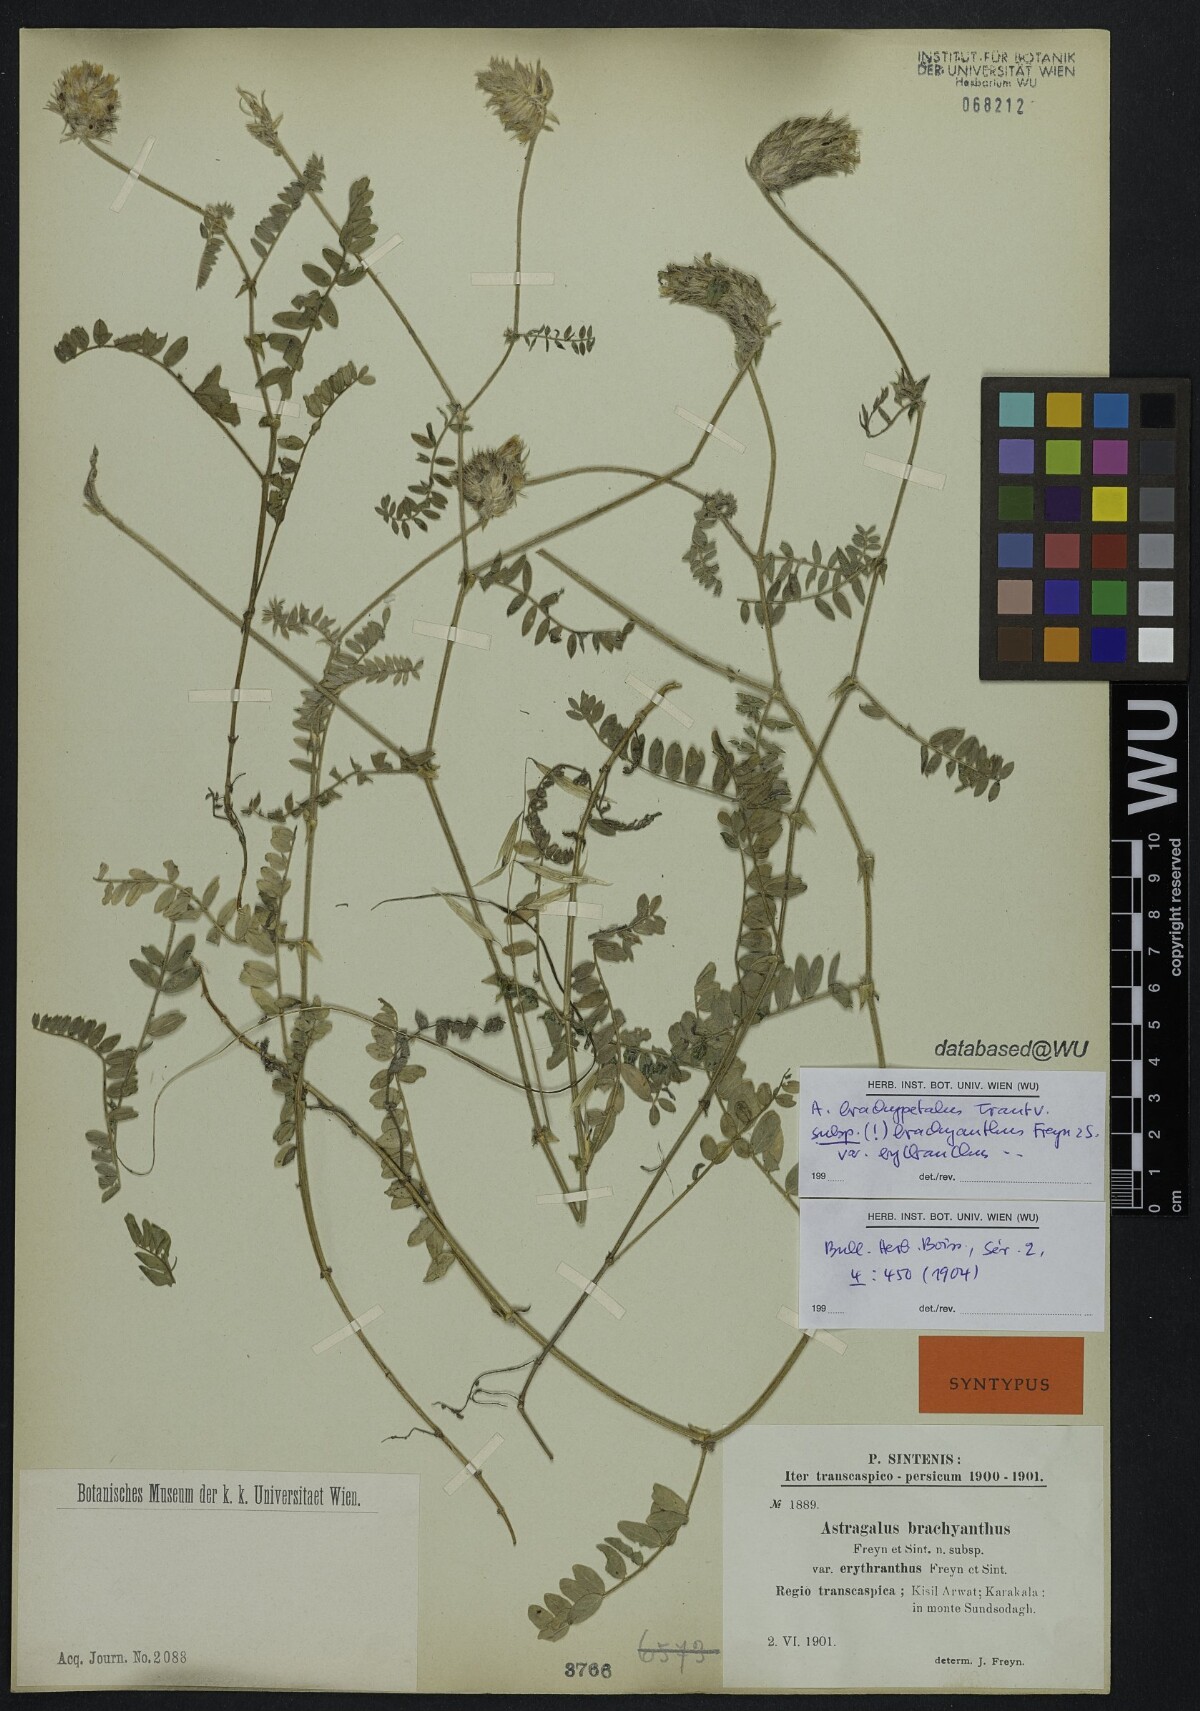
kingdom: Plantae
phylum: Tracheophyta
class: Magnoliopsida
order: Fabales
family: Fabaceae
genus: Astragalus
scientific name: Astragalus brachypetalus
